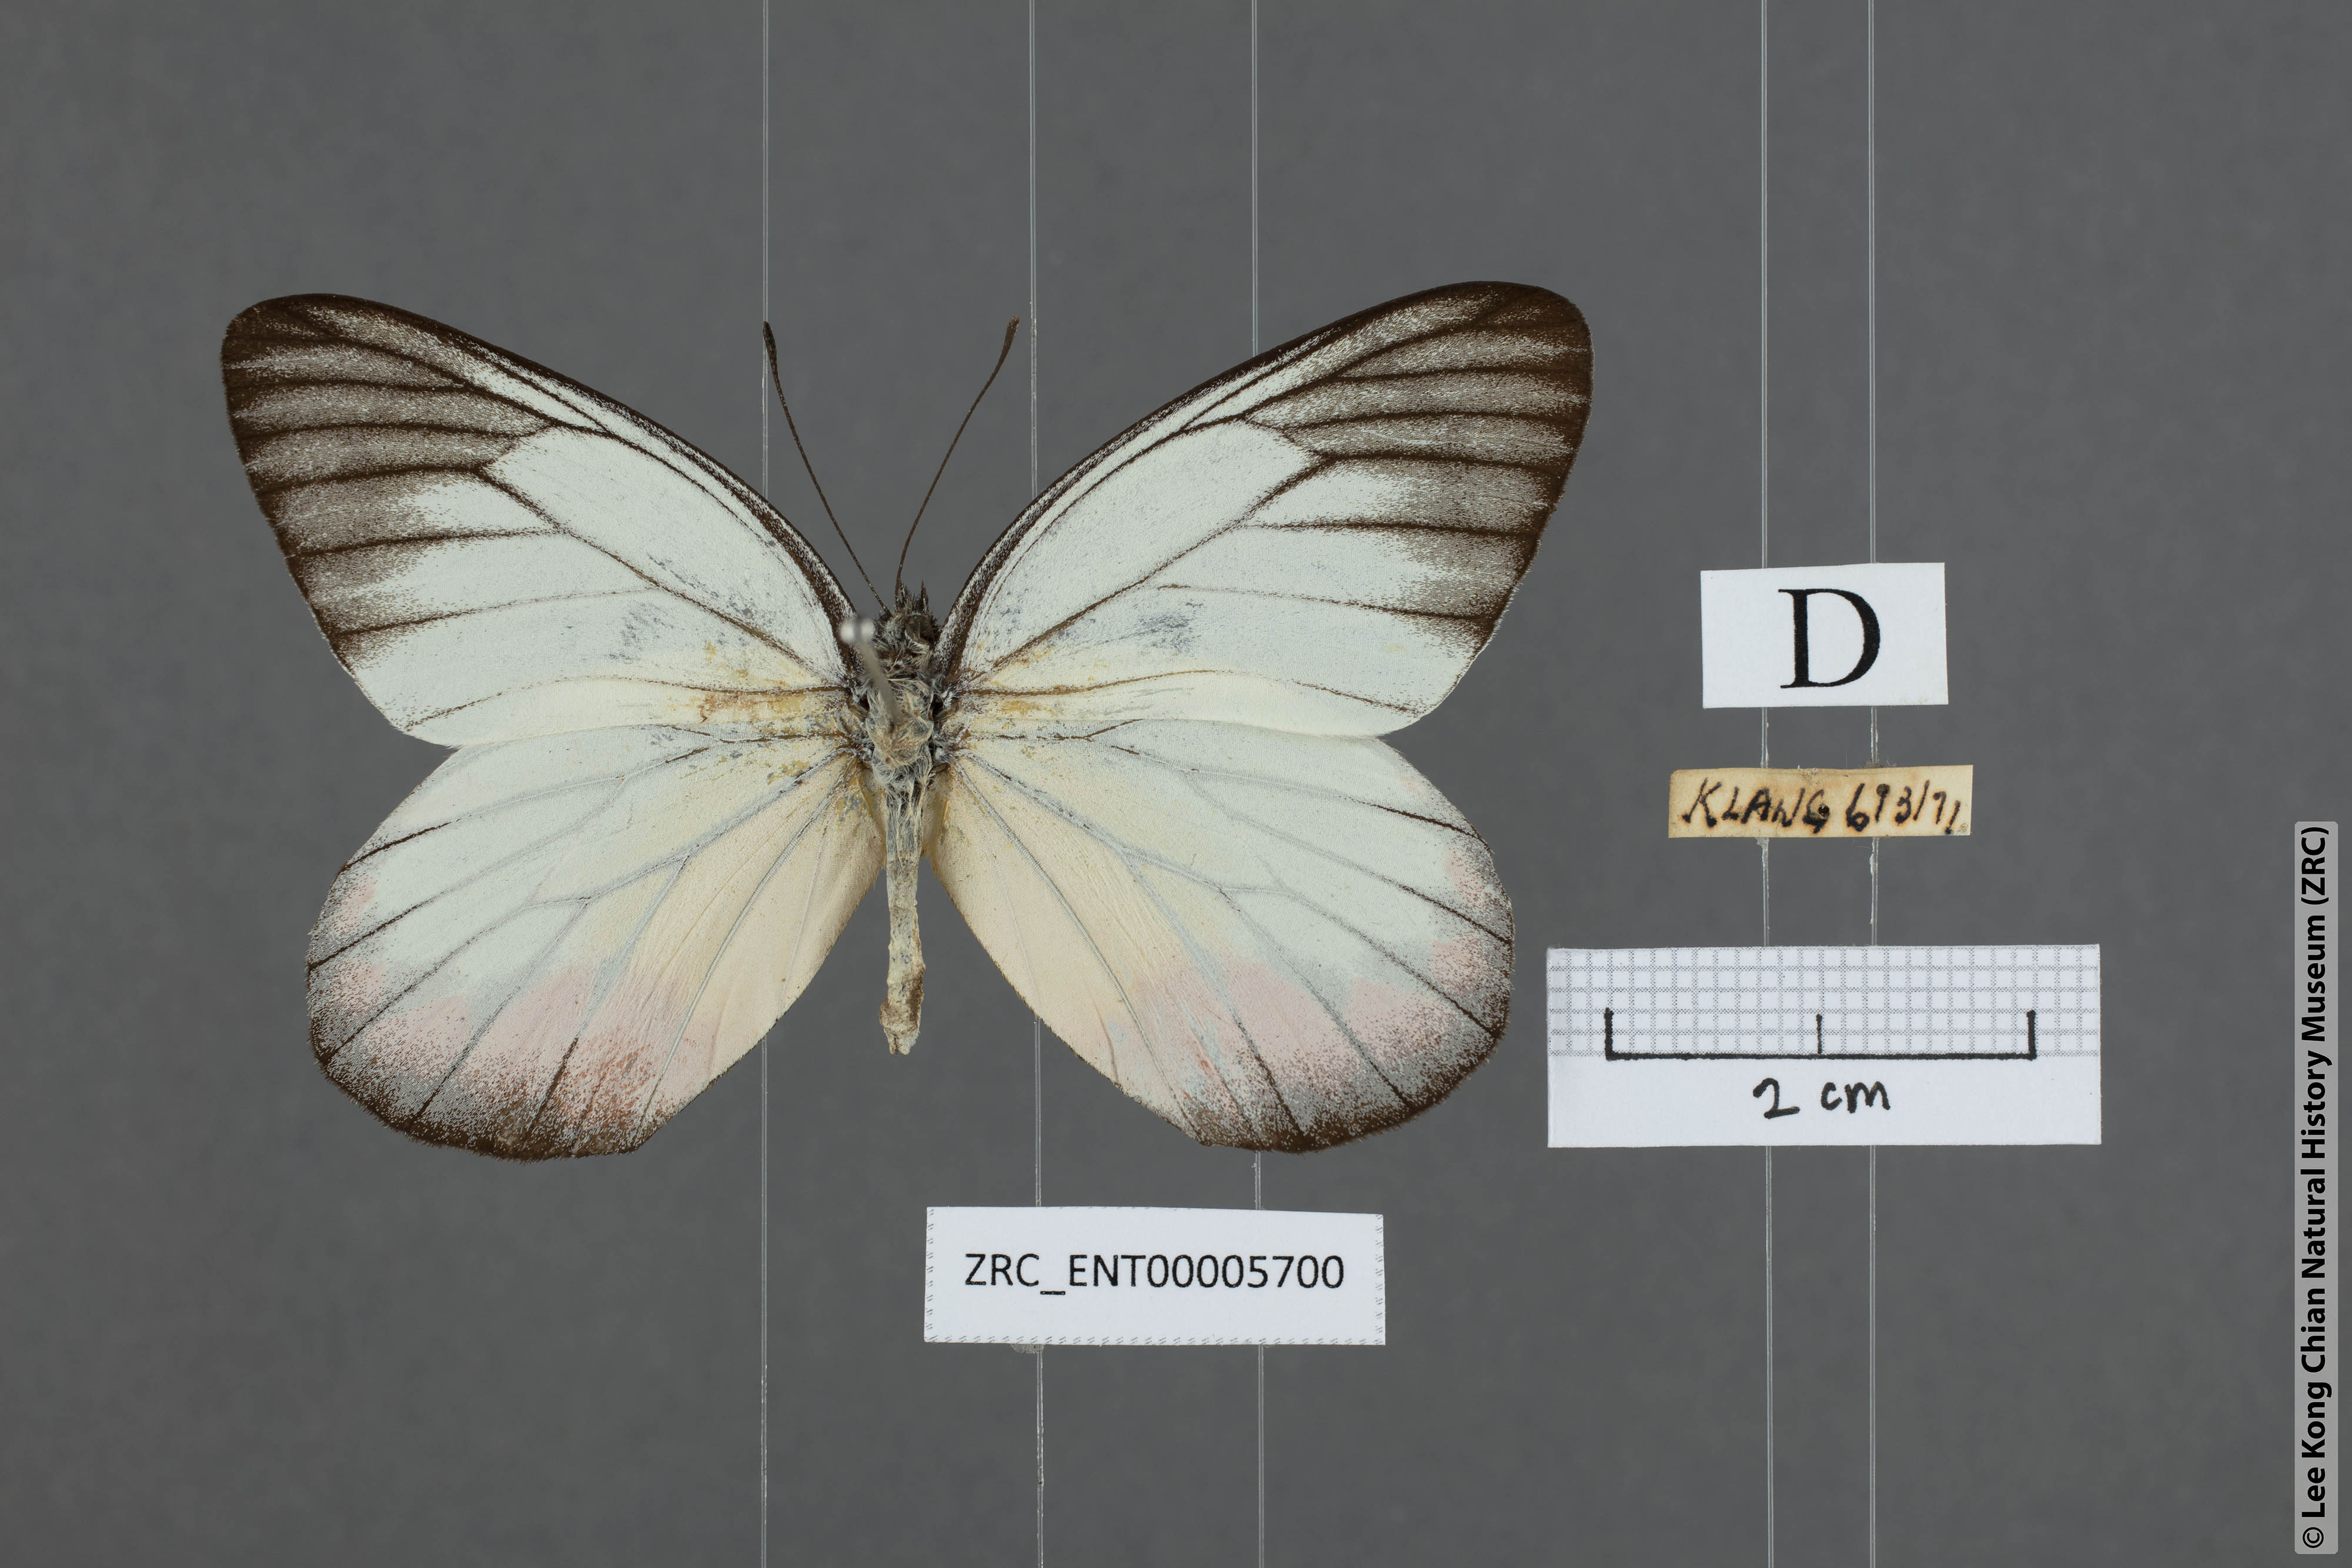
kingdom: Animalia
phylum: Arthropoda
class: Insecta
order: Lepidoptera
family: Pieridae
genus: Delias
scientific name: Delias hyparete
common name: Painted jezebel
